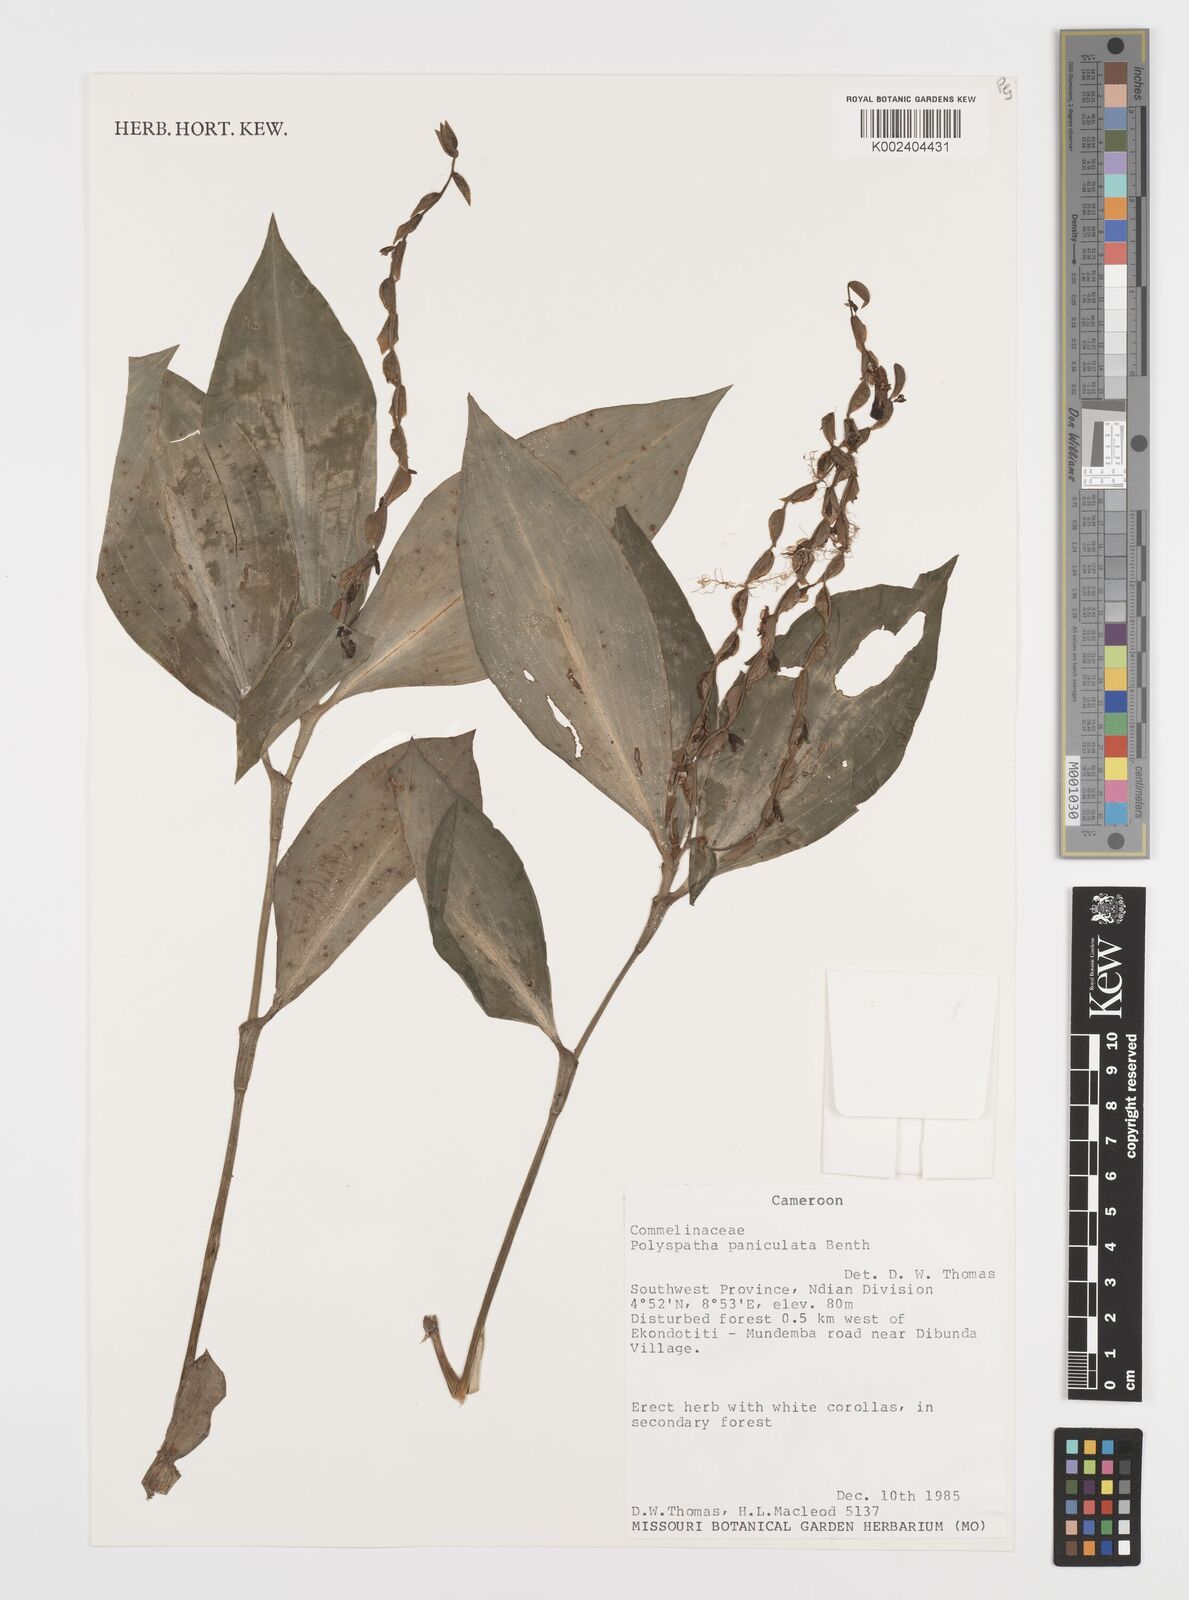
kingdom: Plantae
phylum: Tracheophyta
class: Liliopsida
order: Commelinales
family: Commelinaceae
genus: Polyspatha
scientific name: Polyspatha paniculata
